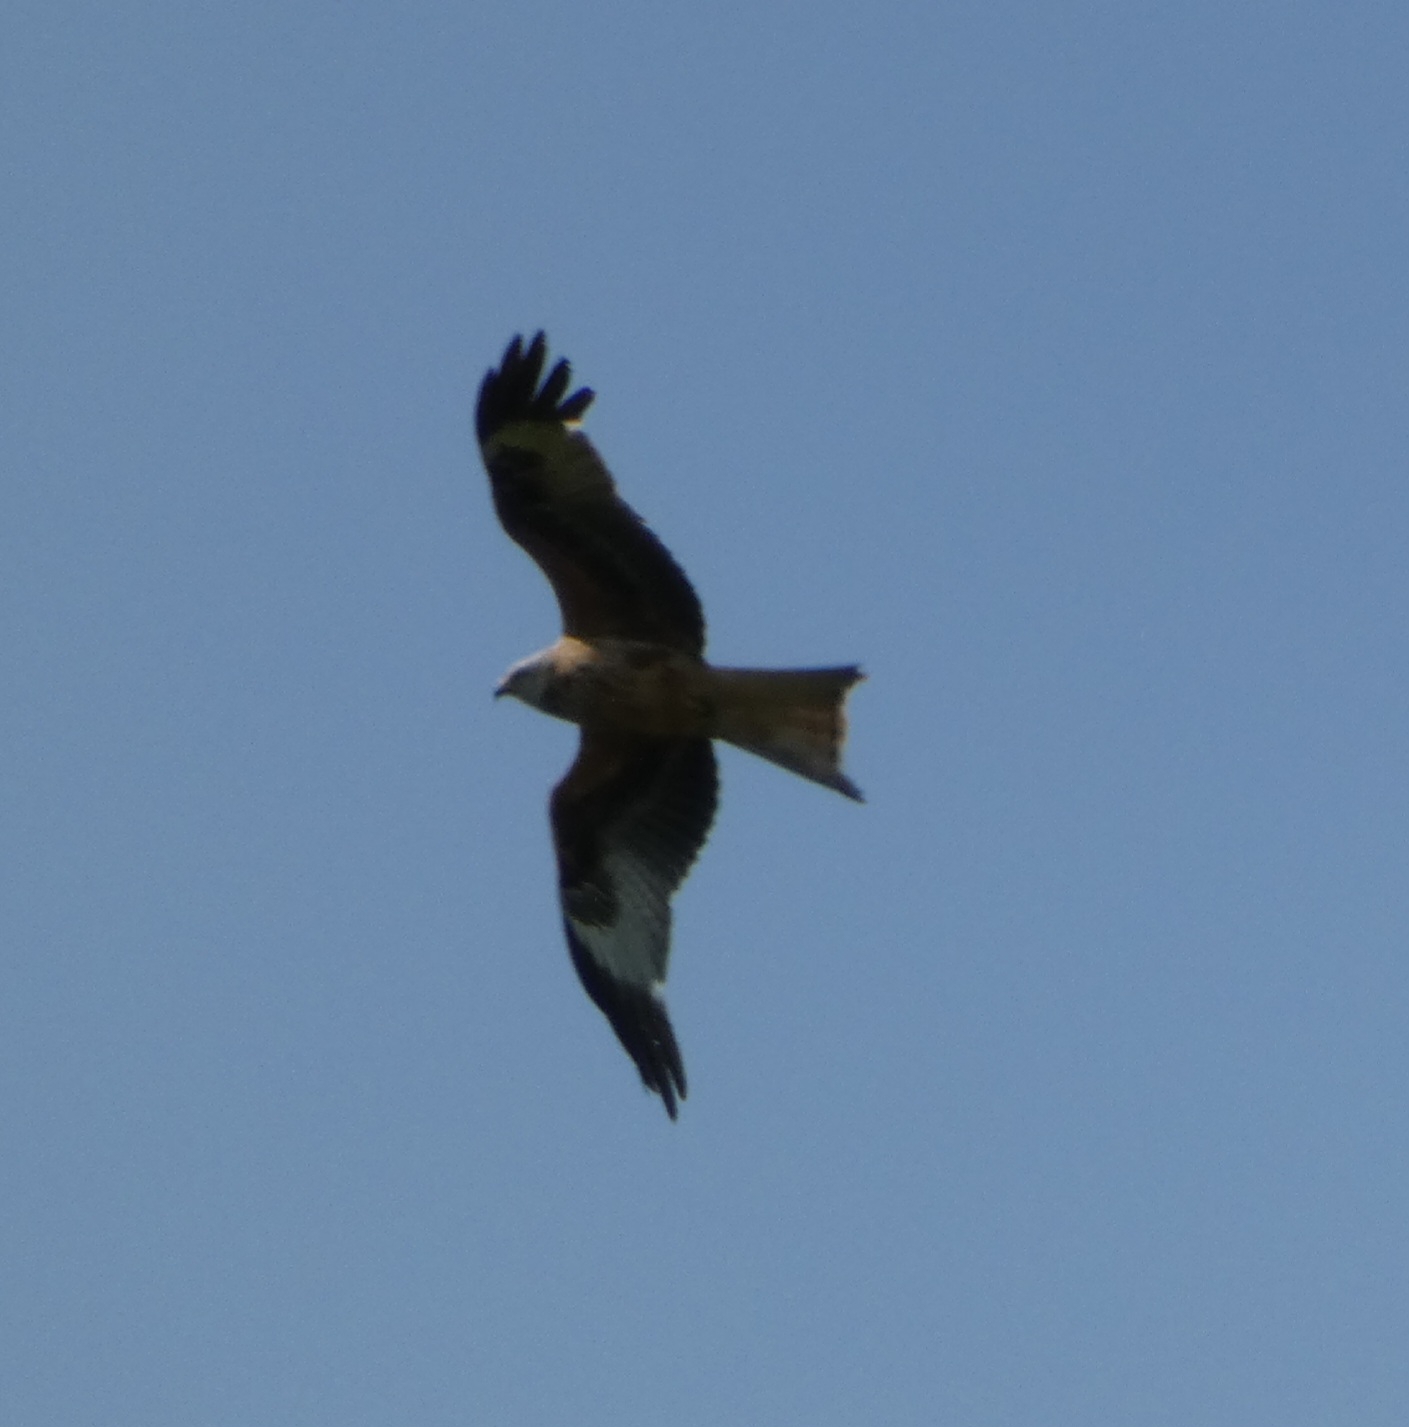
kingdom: Animalia
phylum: Chordata
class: Aves
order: Accipitriformes
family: Accipitridae
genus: Milvus
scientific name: Milvus milvus
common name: Rød glente
